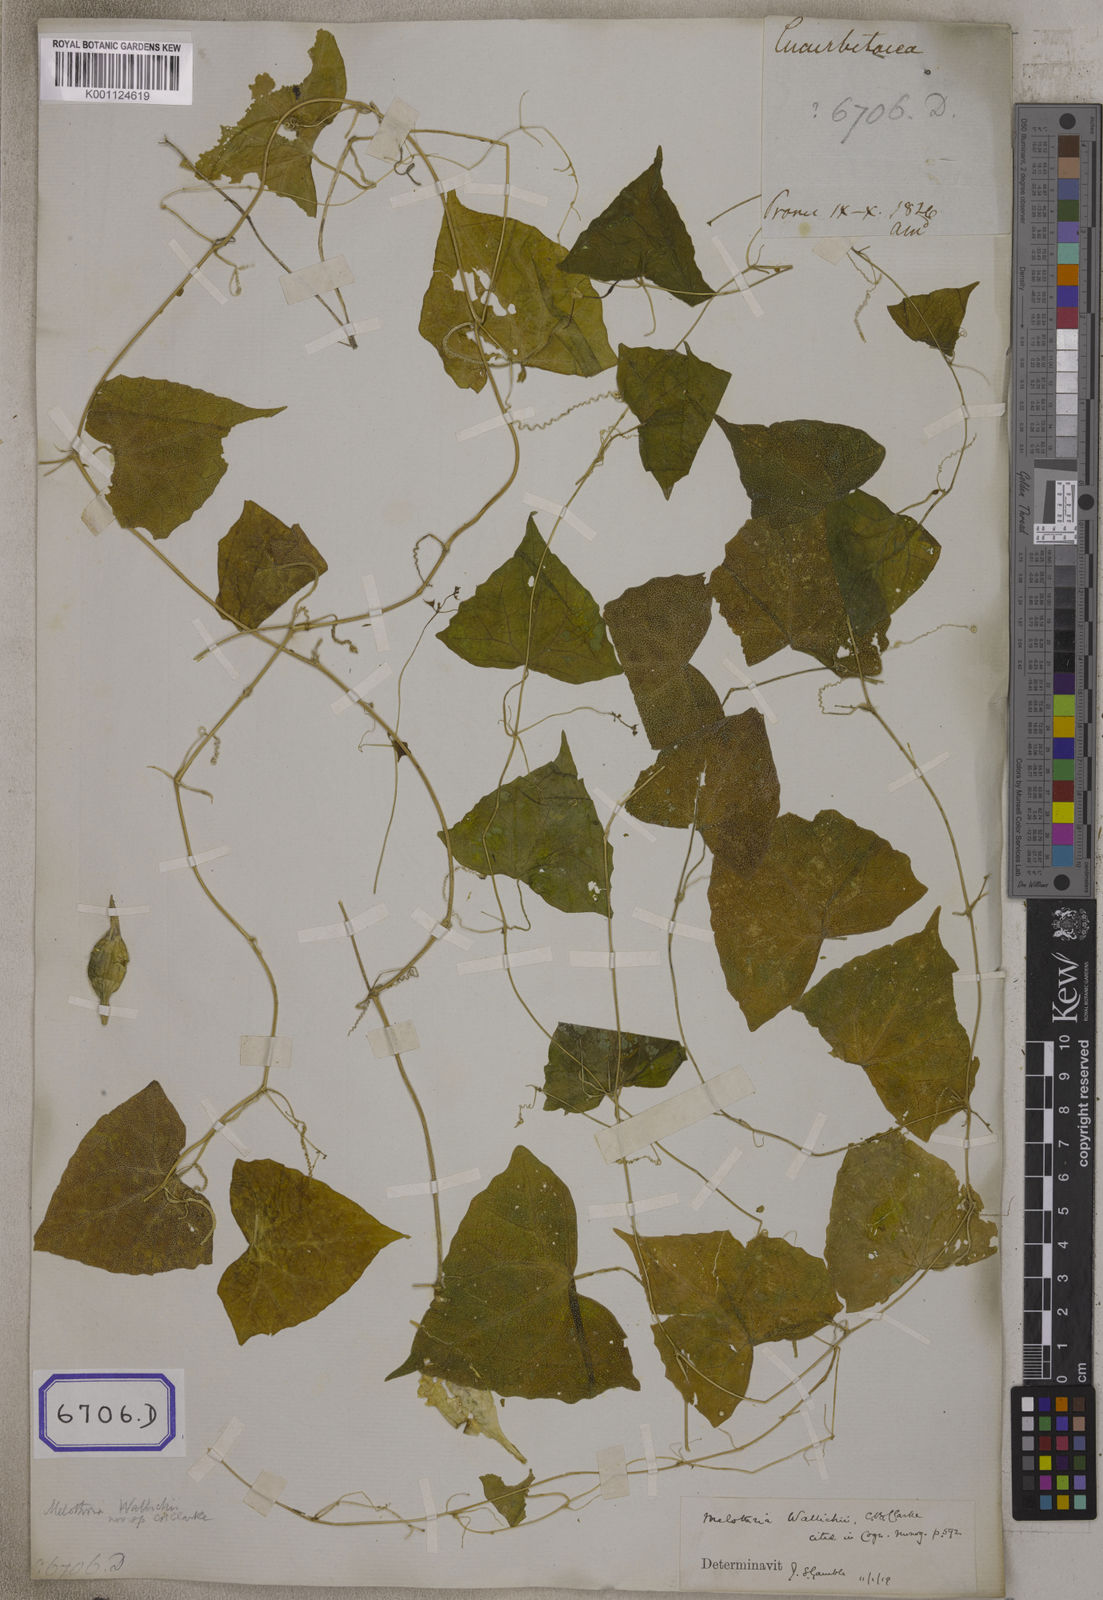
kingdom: Plantae
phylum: Tracheophyta
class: Magnoliopsida
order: Cucurbitales
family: Cucurbitaceae
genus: Zehneria
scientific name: Zehneria odorata
